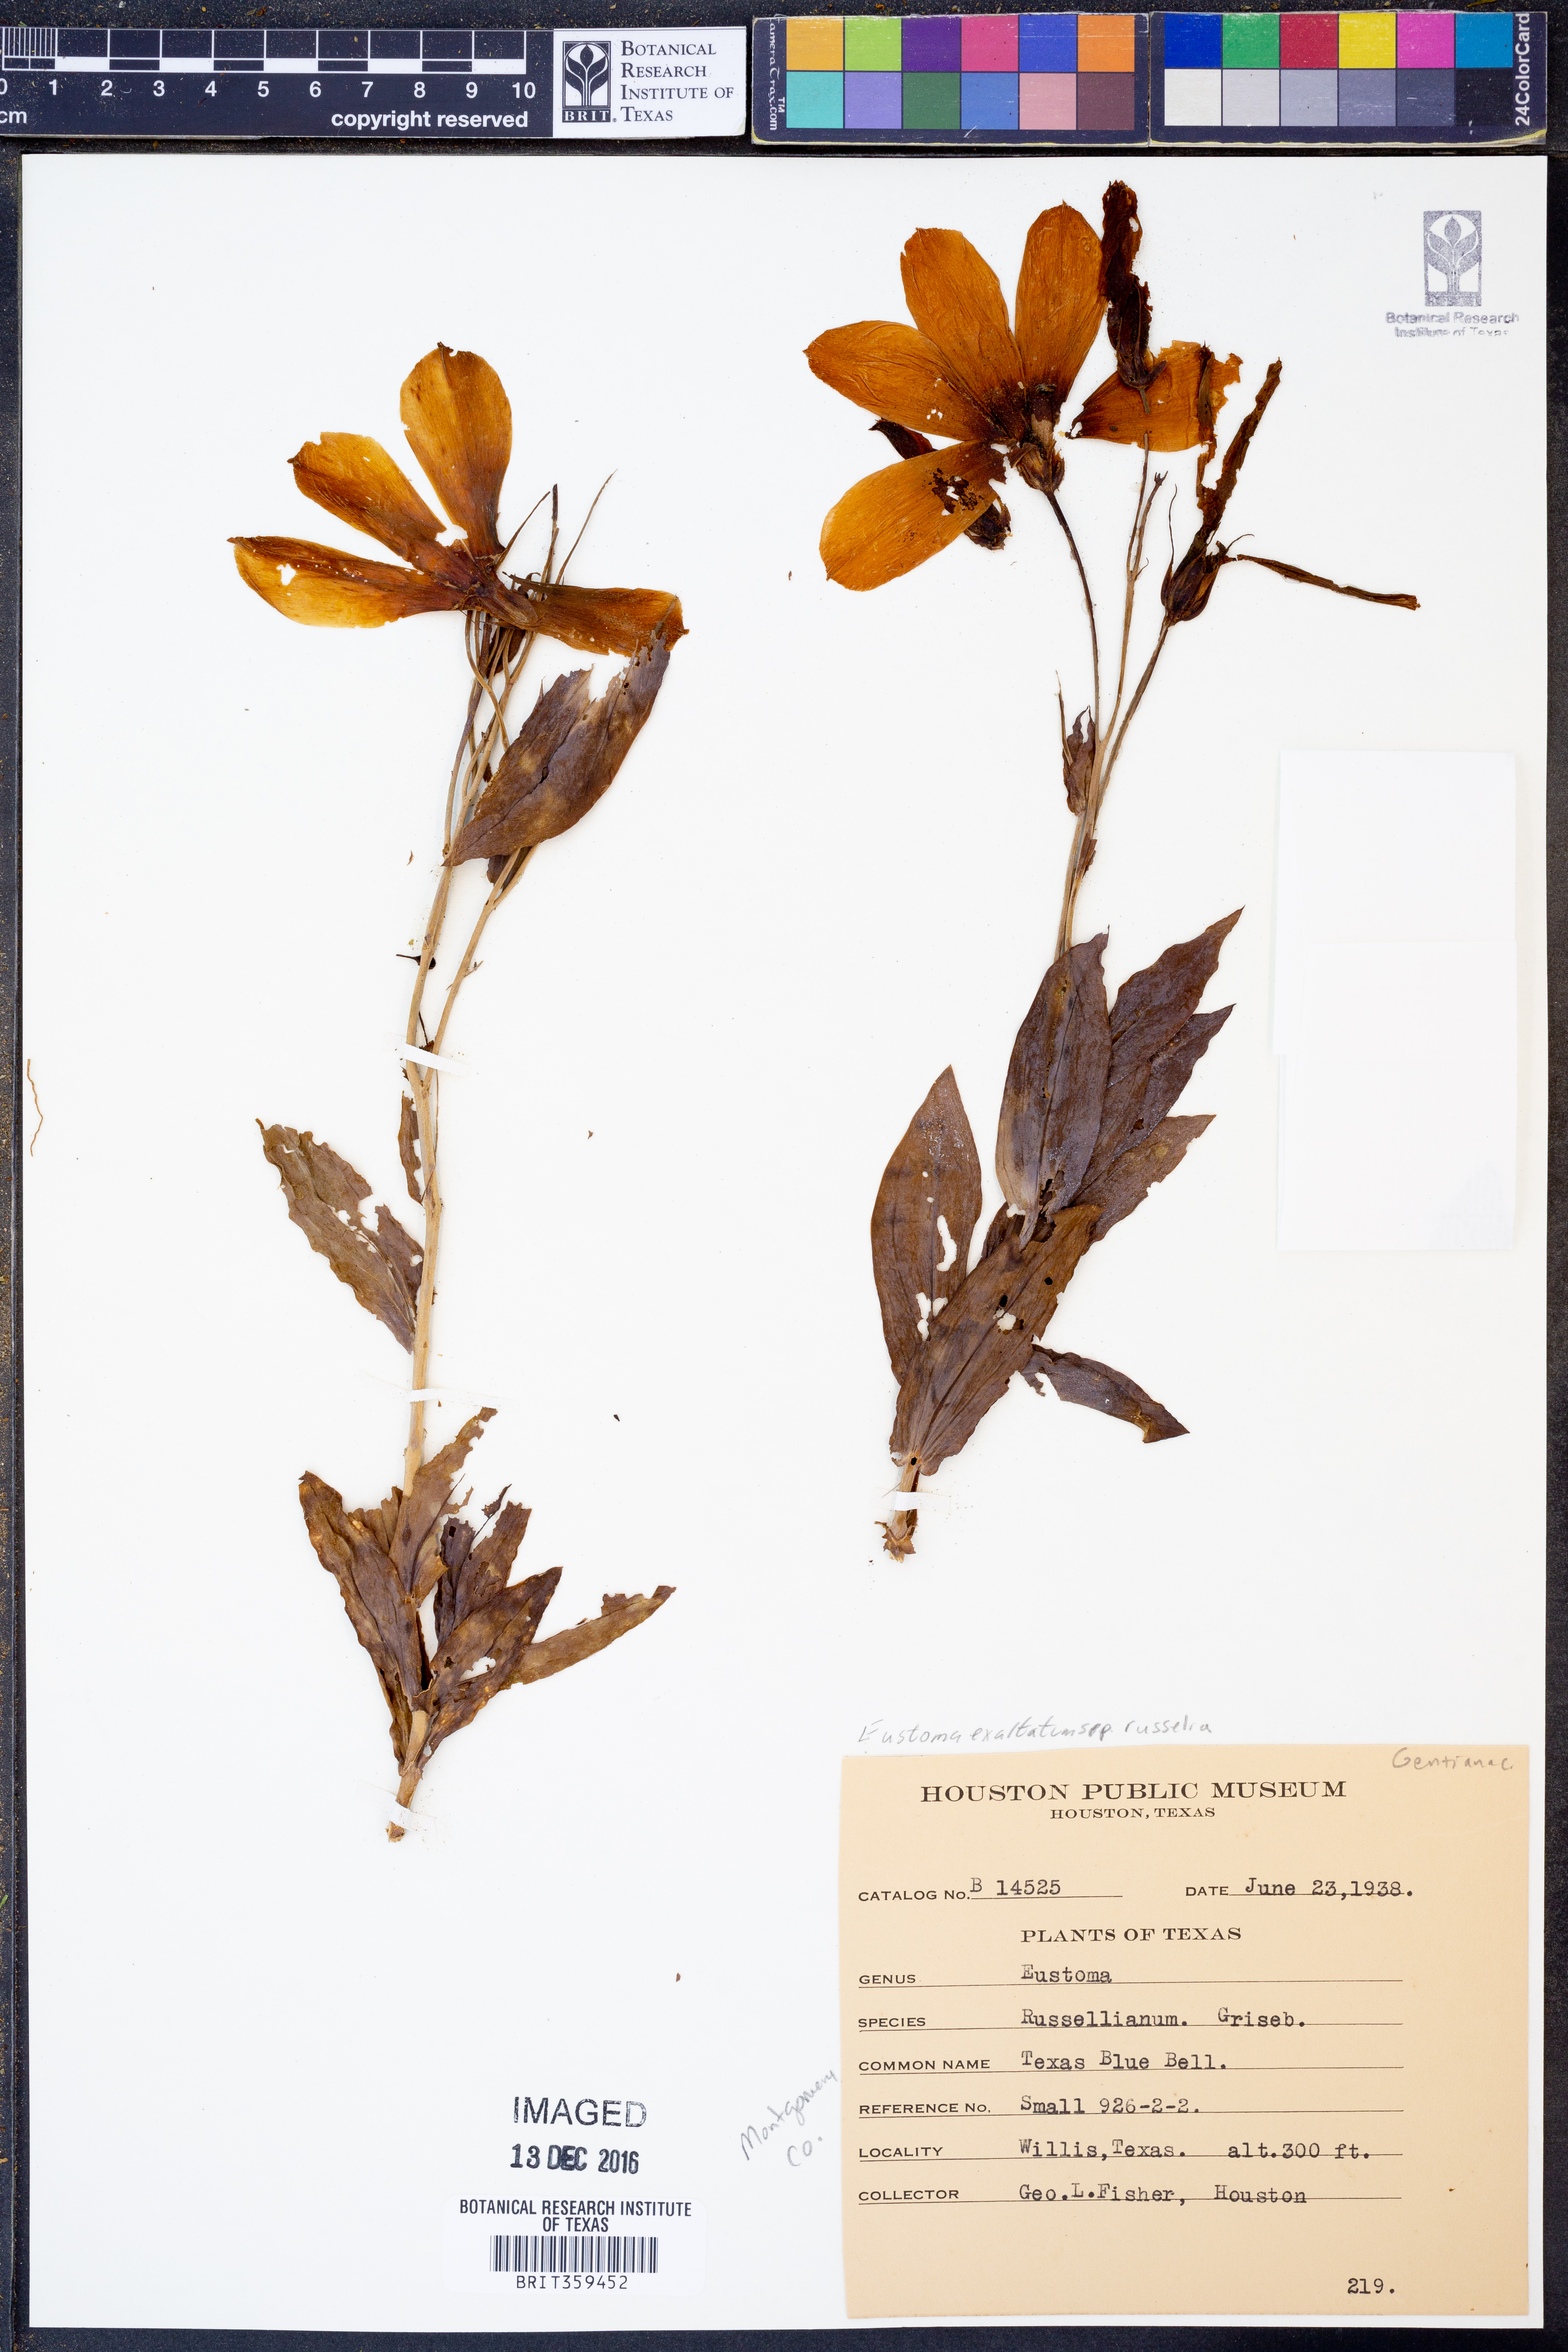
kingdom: Plantae
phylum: Tracheophyta
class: Magnoliopsida
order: Gentianales
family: Gentianaceae
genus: Eustoma
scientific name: Eustoma russellianum
